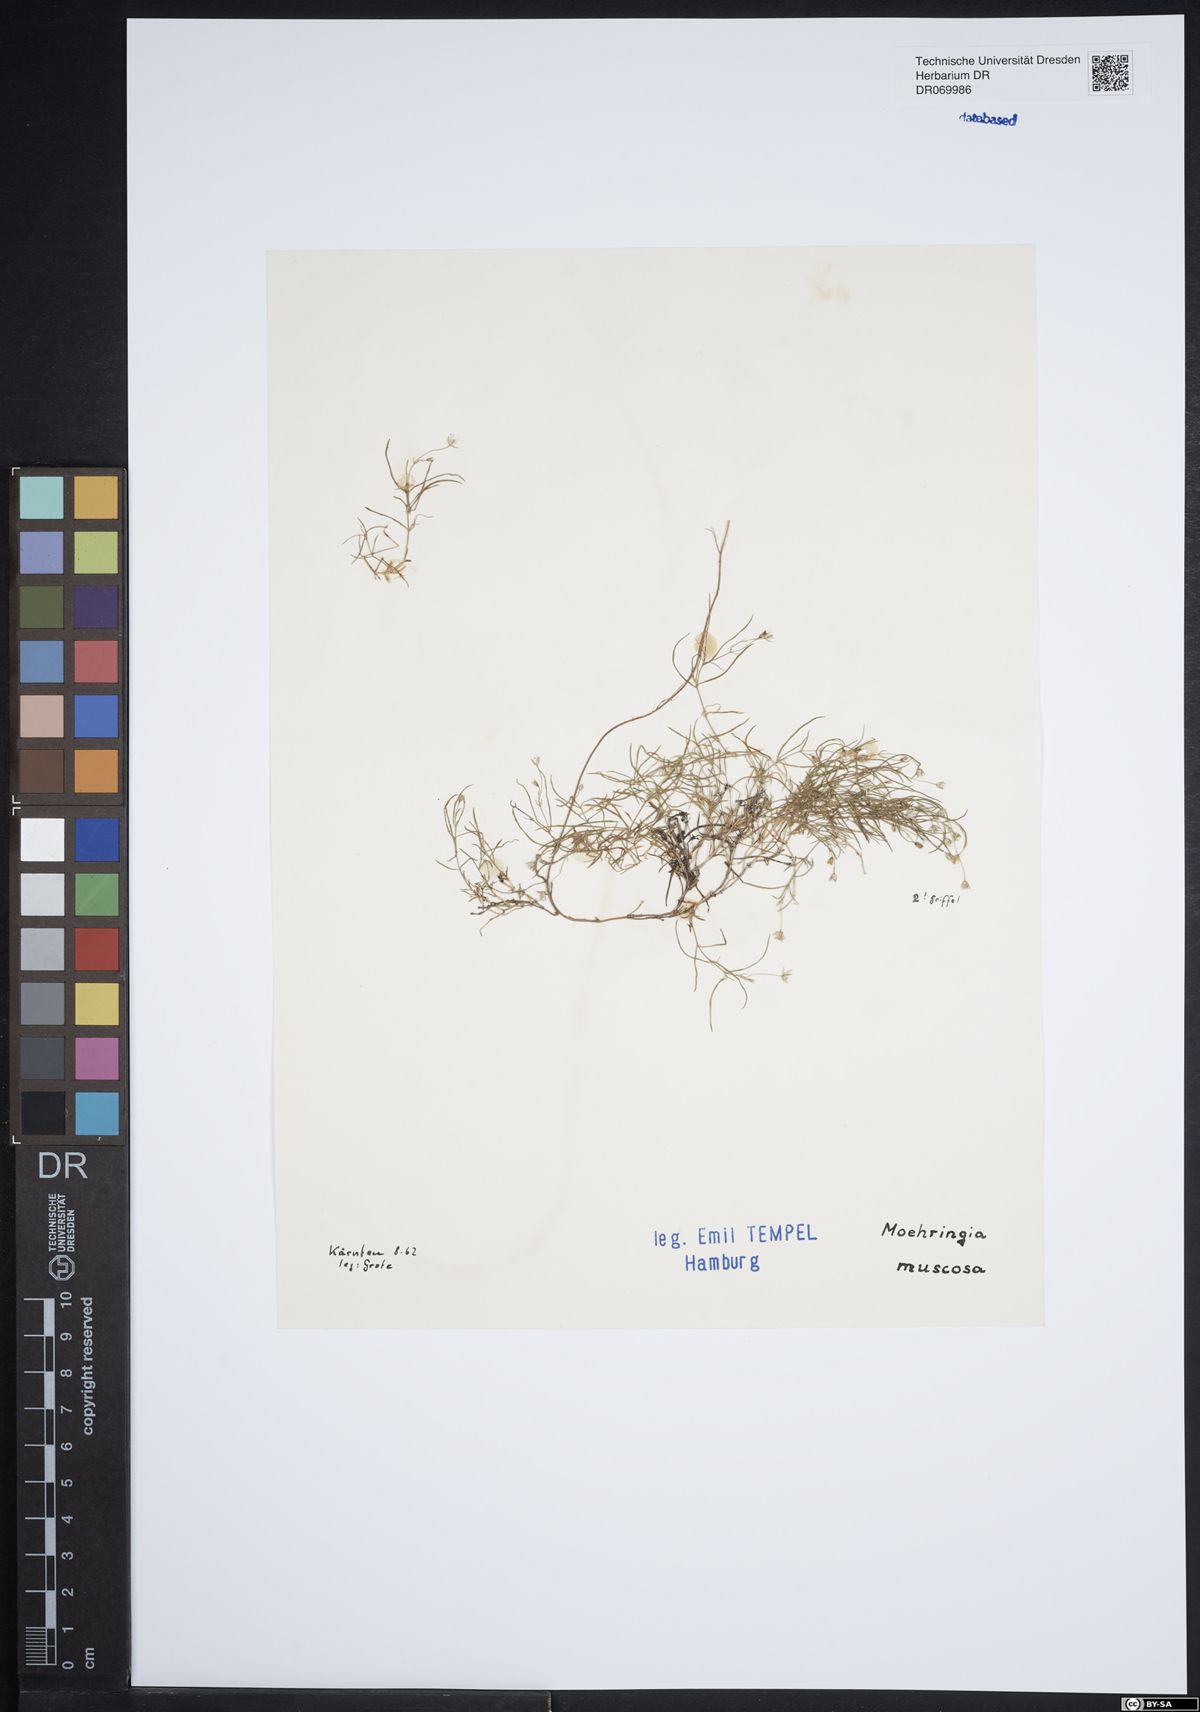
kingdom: Plantae
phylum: Tracheophyta
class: Magnoliopsida
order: Caryophyllales
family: Caryophyllaceae
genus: Moehringia
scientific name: Moehringia muscosa
